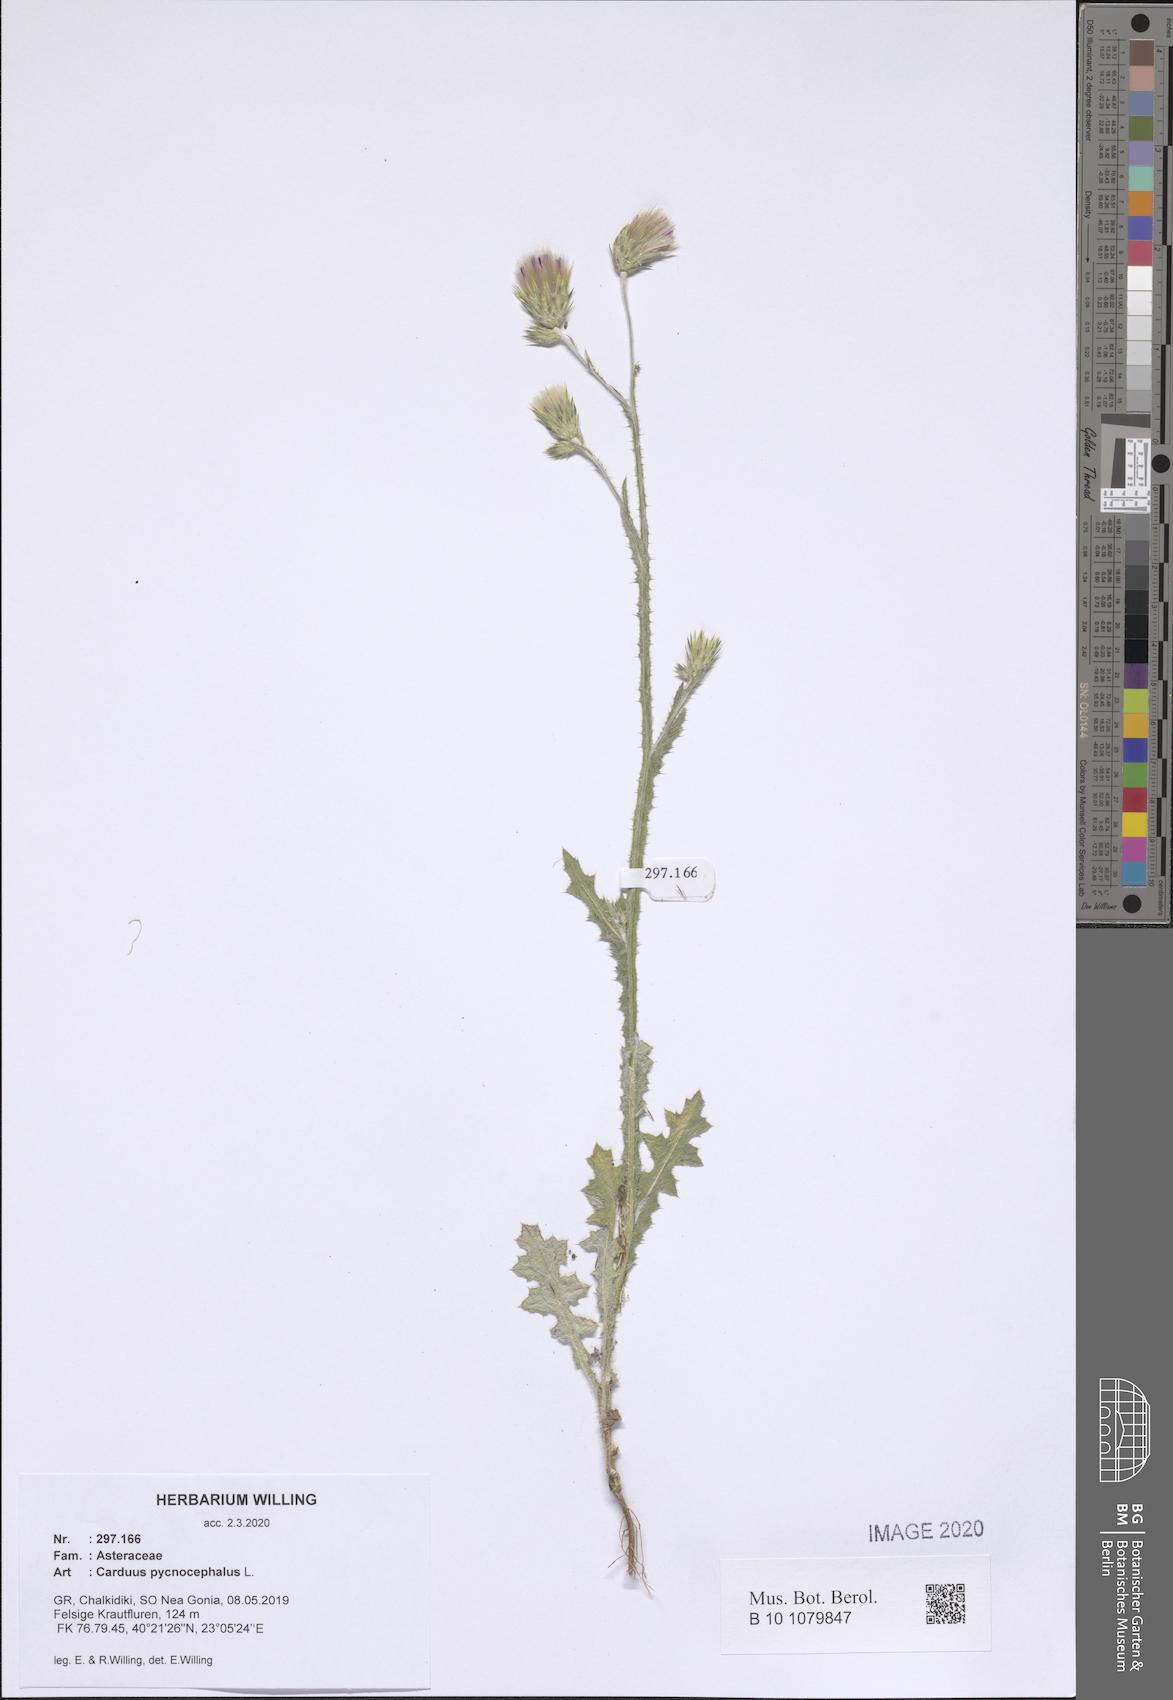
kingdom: Plantae
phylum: Tracheophyta
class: Magnoliopsida
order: Asterales
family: Asteraceae
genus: Carduus
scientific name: Carduus pycnocephalus
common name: Plymouth thistle
